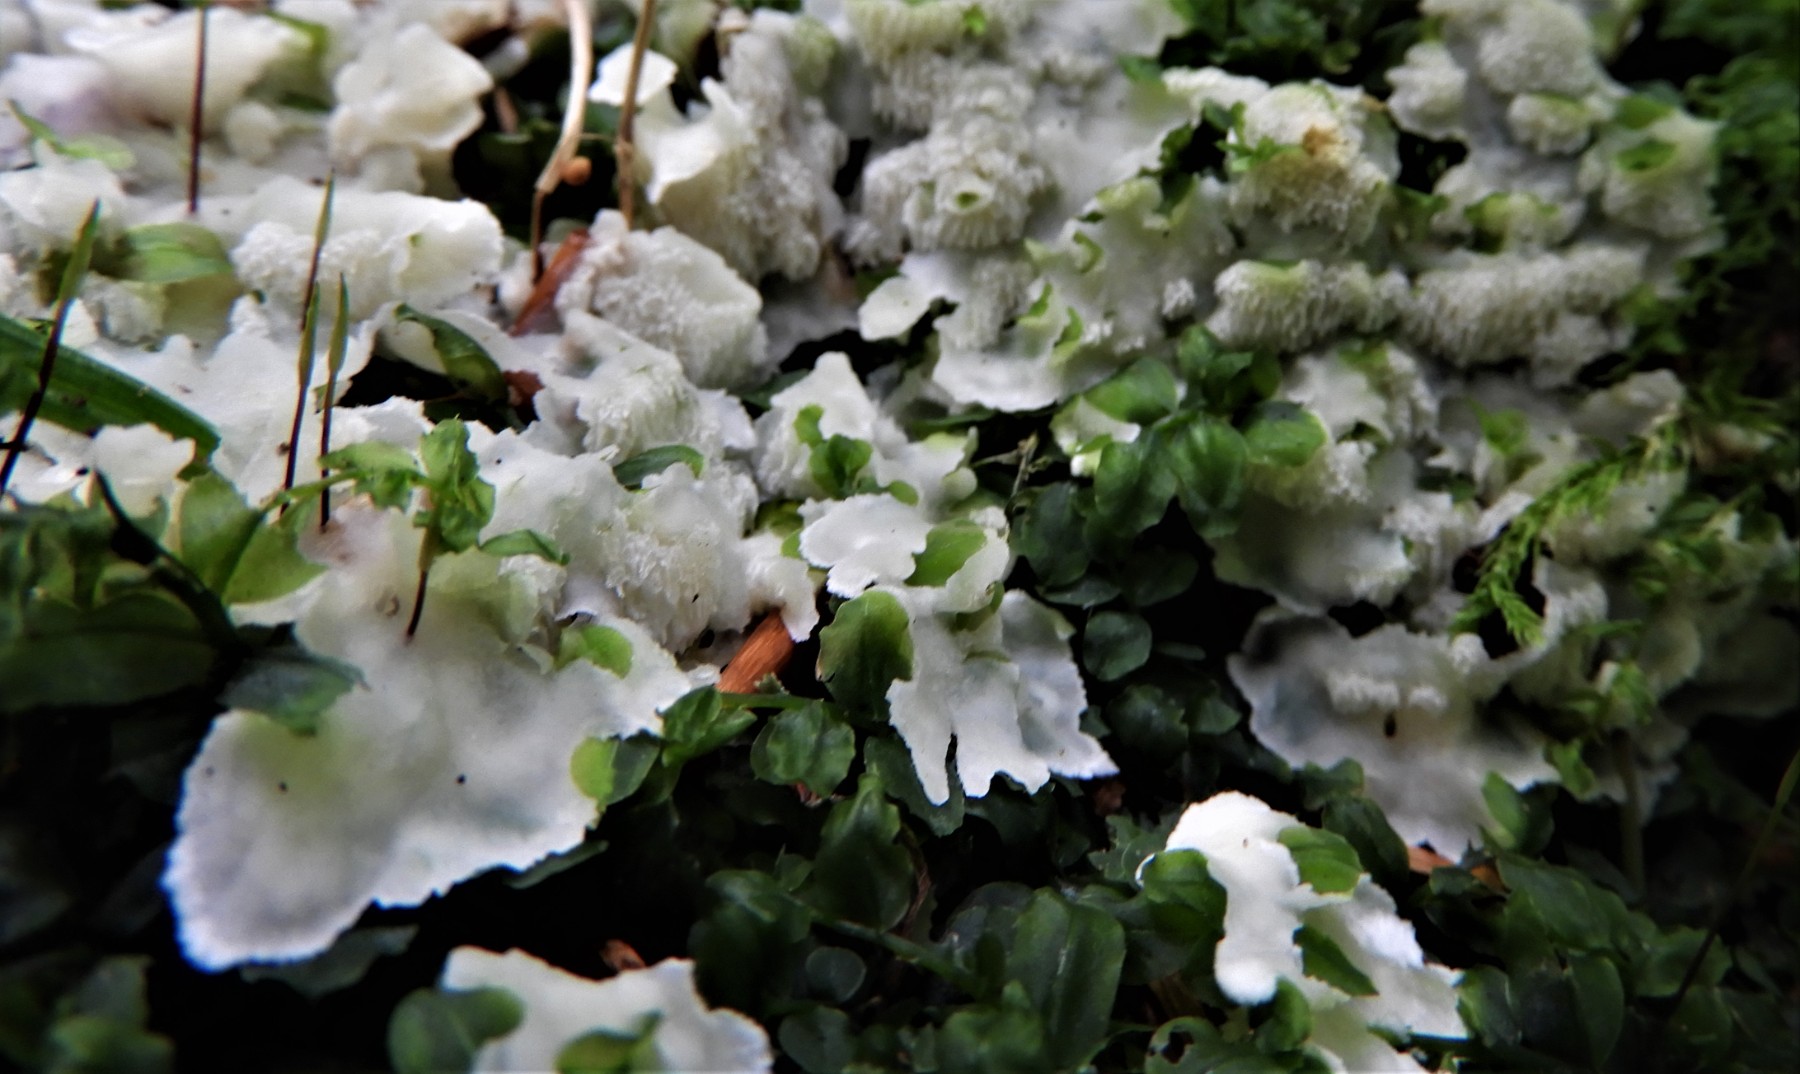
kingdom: Fungi
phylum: Basidiomycota
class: Agaricomycetes
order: Polyporales
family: Meruliaceae
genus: Physisporinus
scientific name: Physisporinus vitreus
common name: mastesvamp
